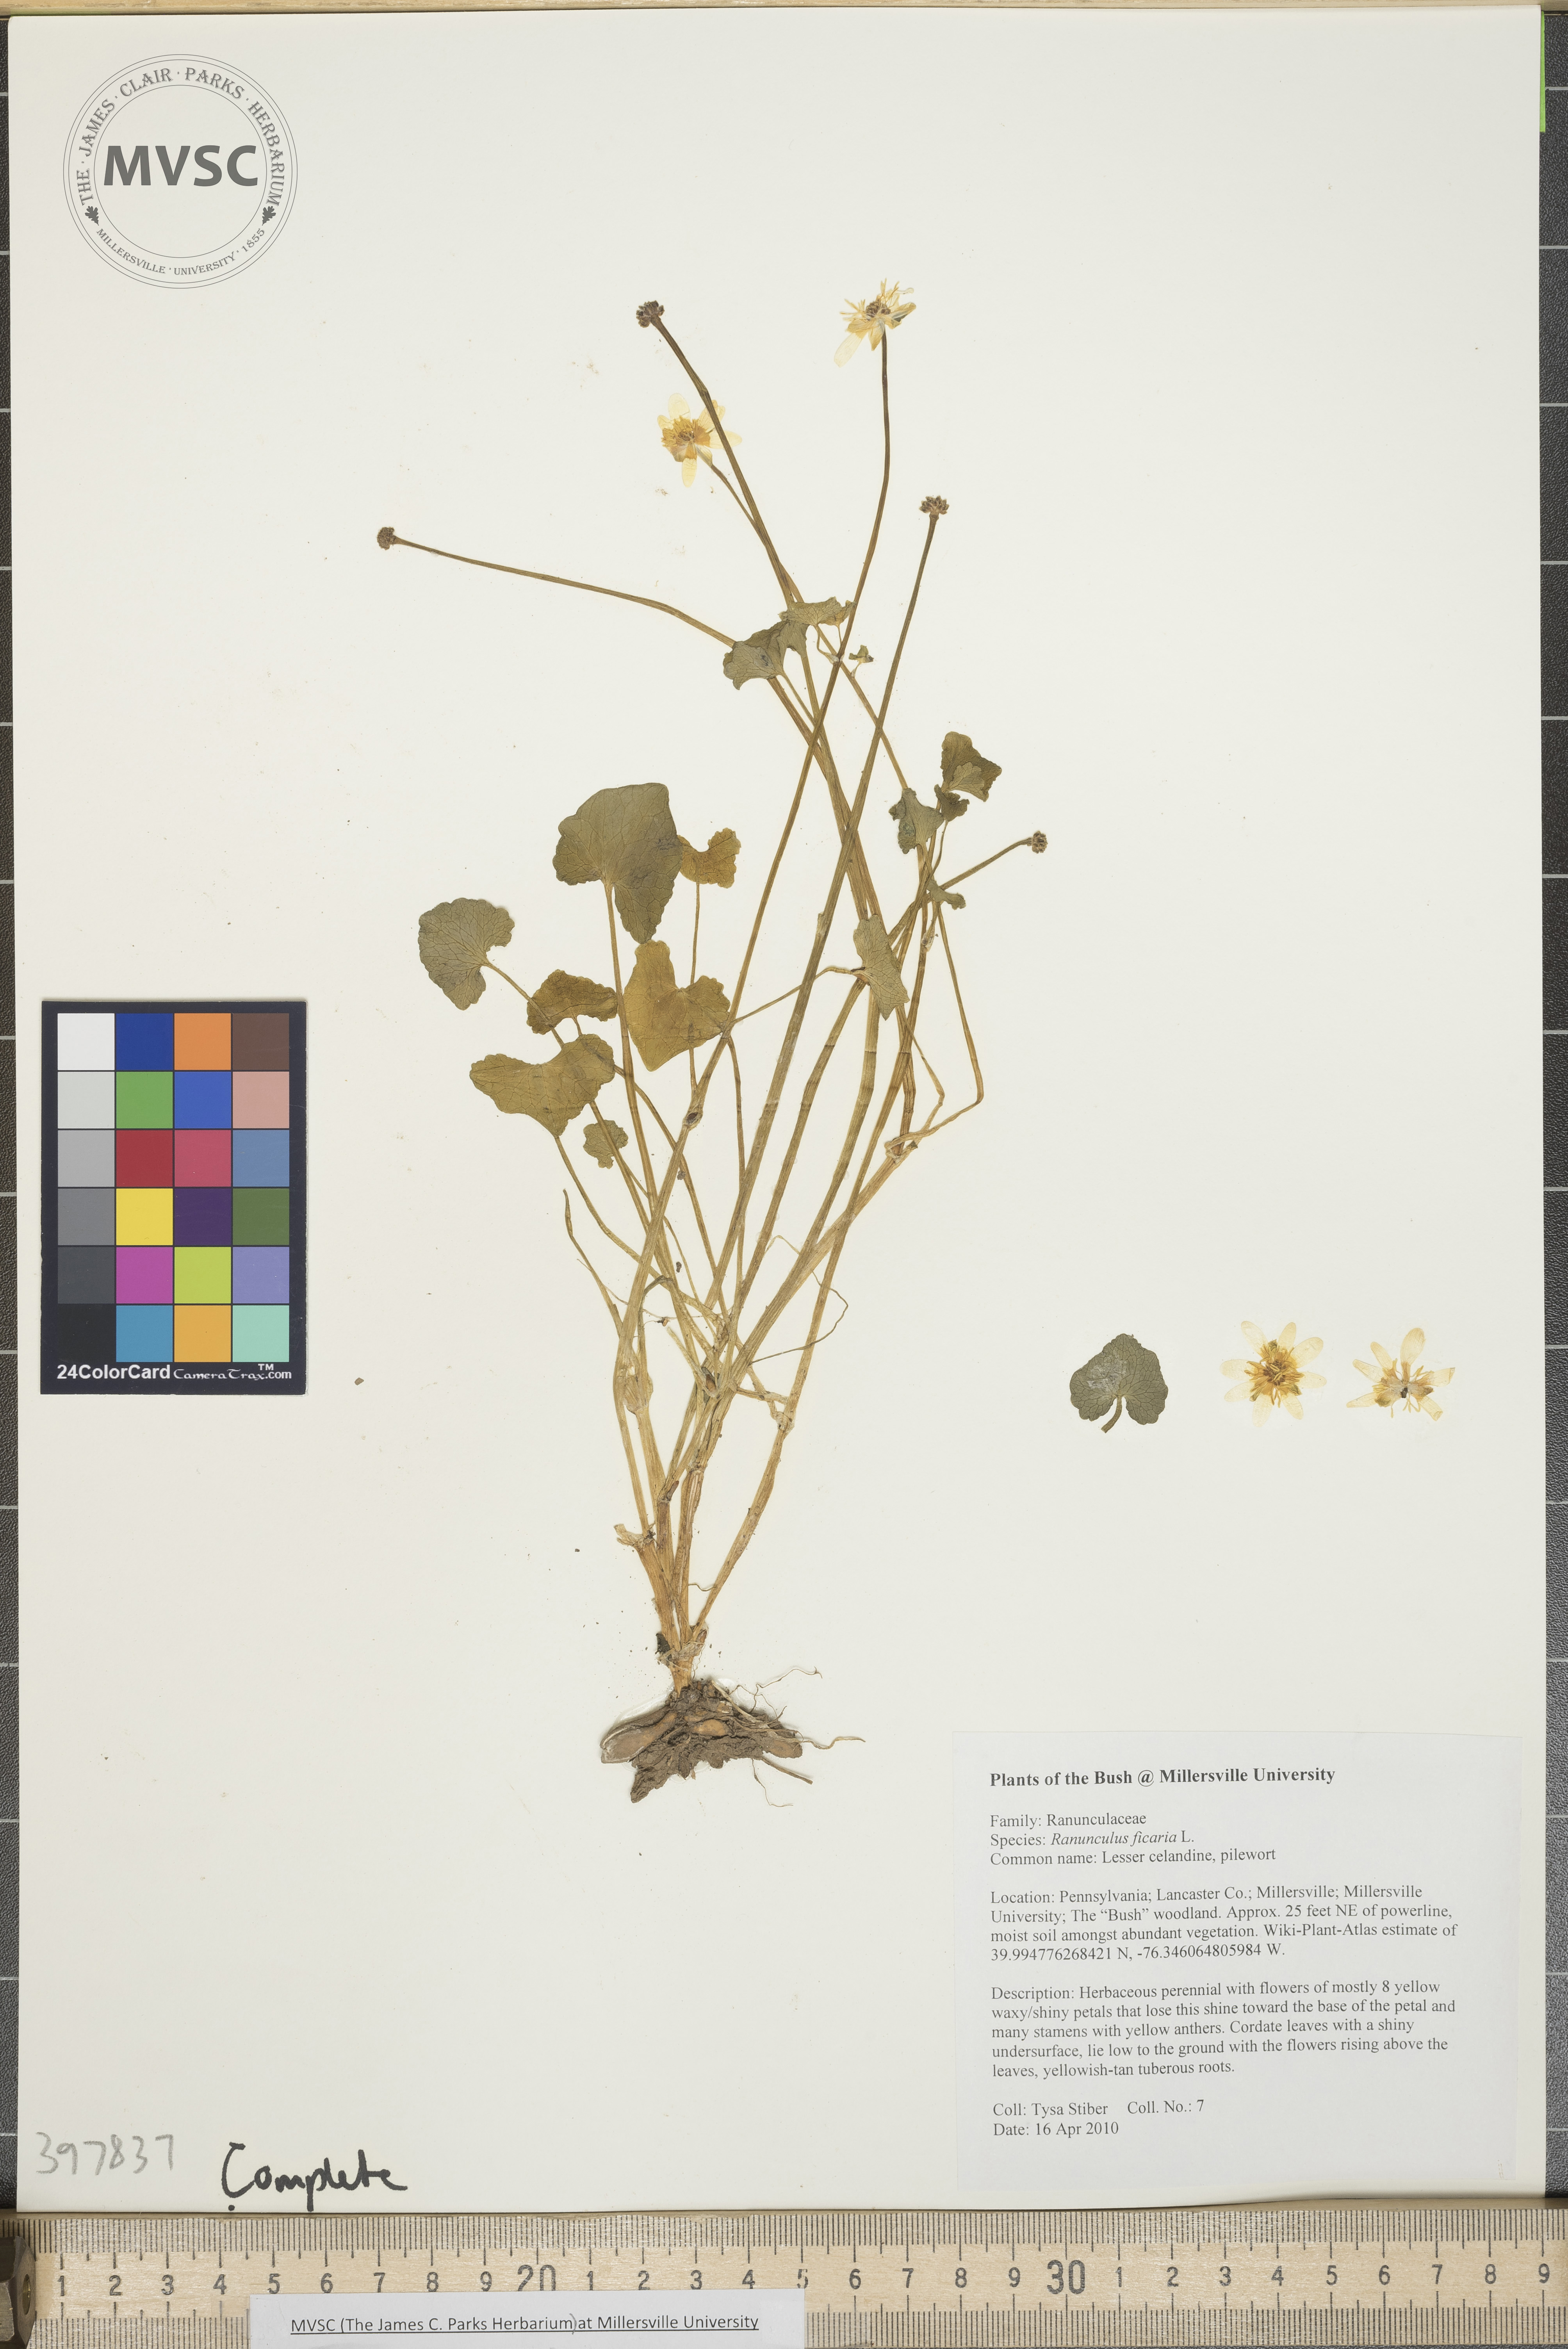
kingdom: Plantae
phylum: Tracheophyta
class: Magnoliopsida
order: Ranunculales
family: Ranunculaceae
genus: Ranunculus
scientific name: Ranunculus ficaria
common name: Lesser celandine
